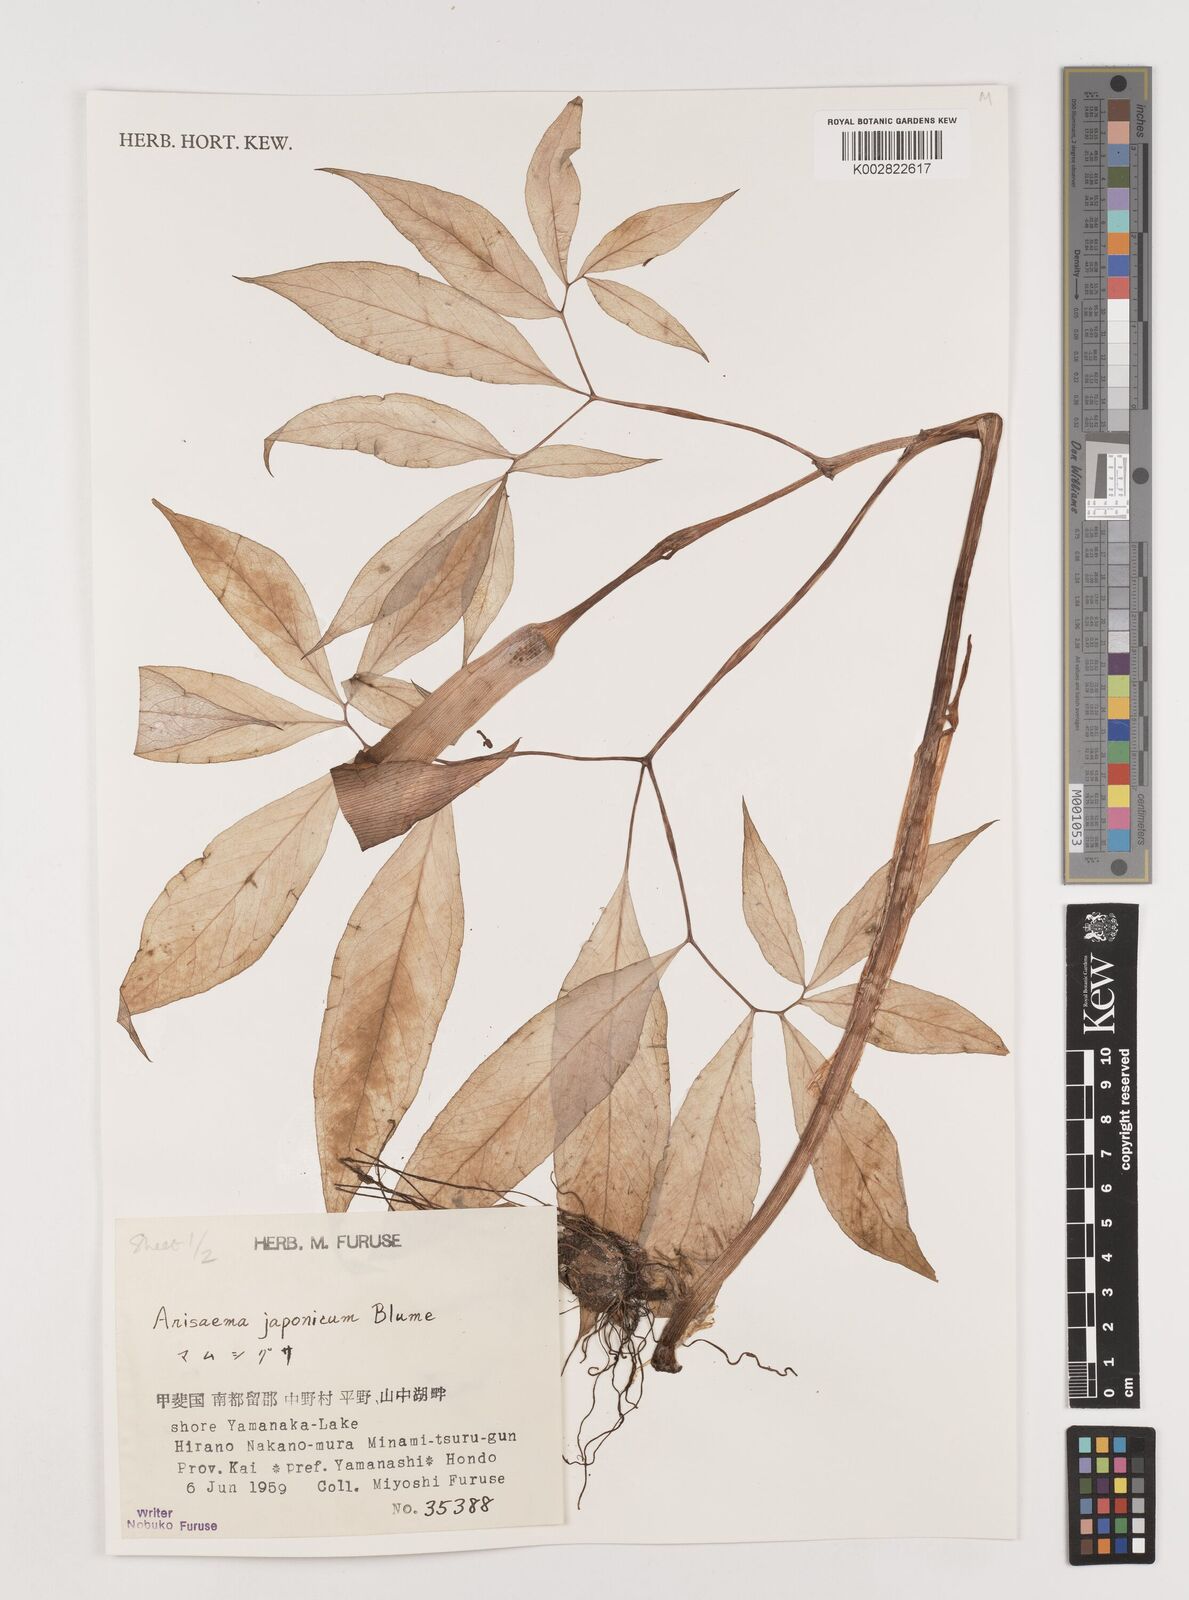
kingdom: Plantae
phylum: Tracheophyta
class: Liliopsida
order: Alismatales
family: Araceae
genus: Arisaema
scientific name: Arisaema serratum
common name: Japanese arisaema
